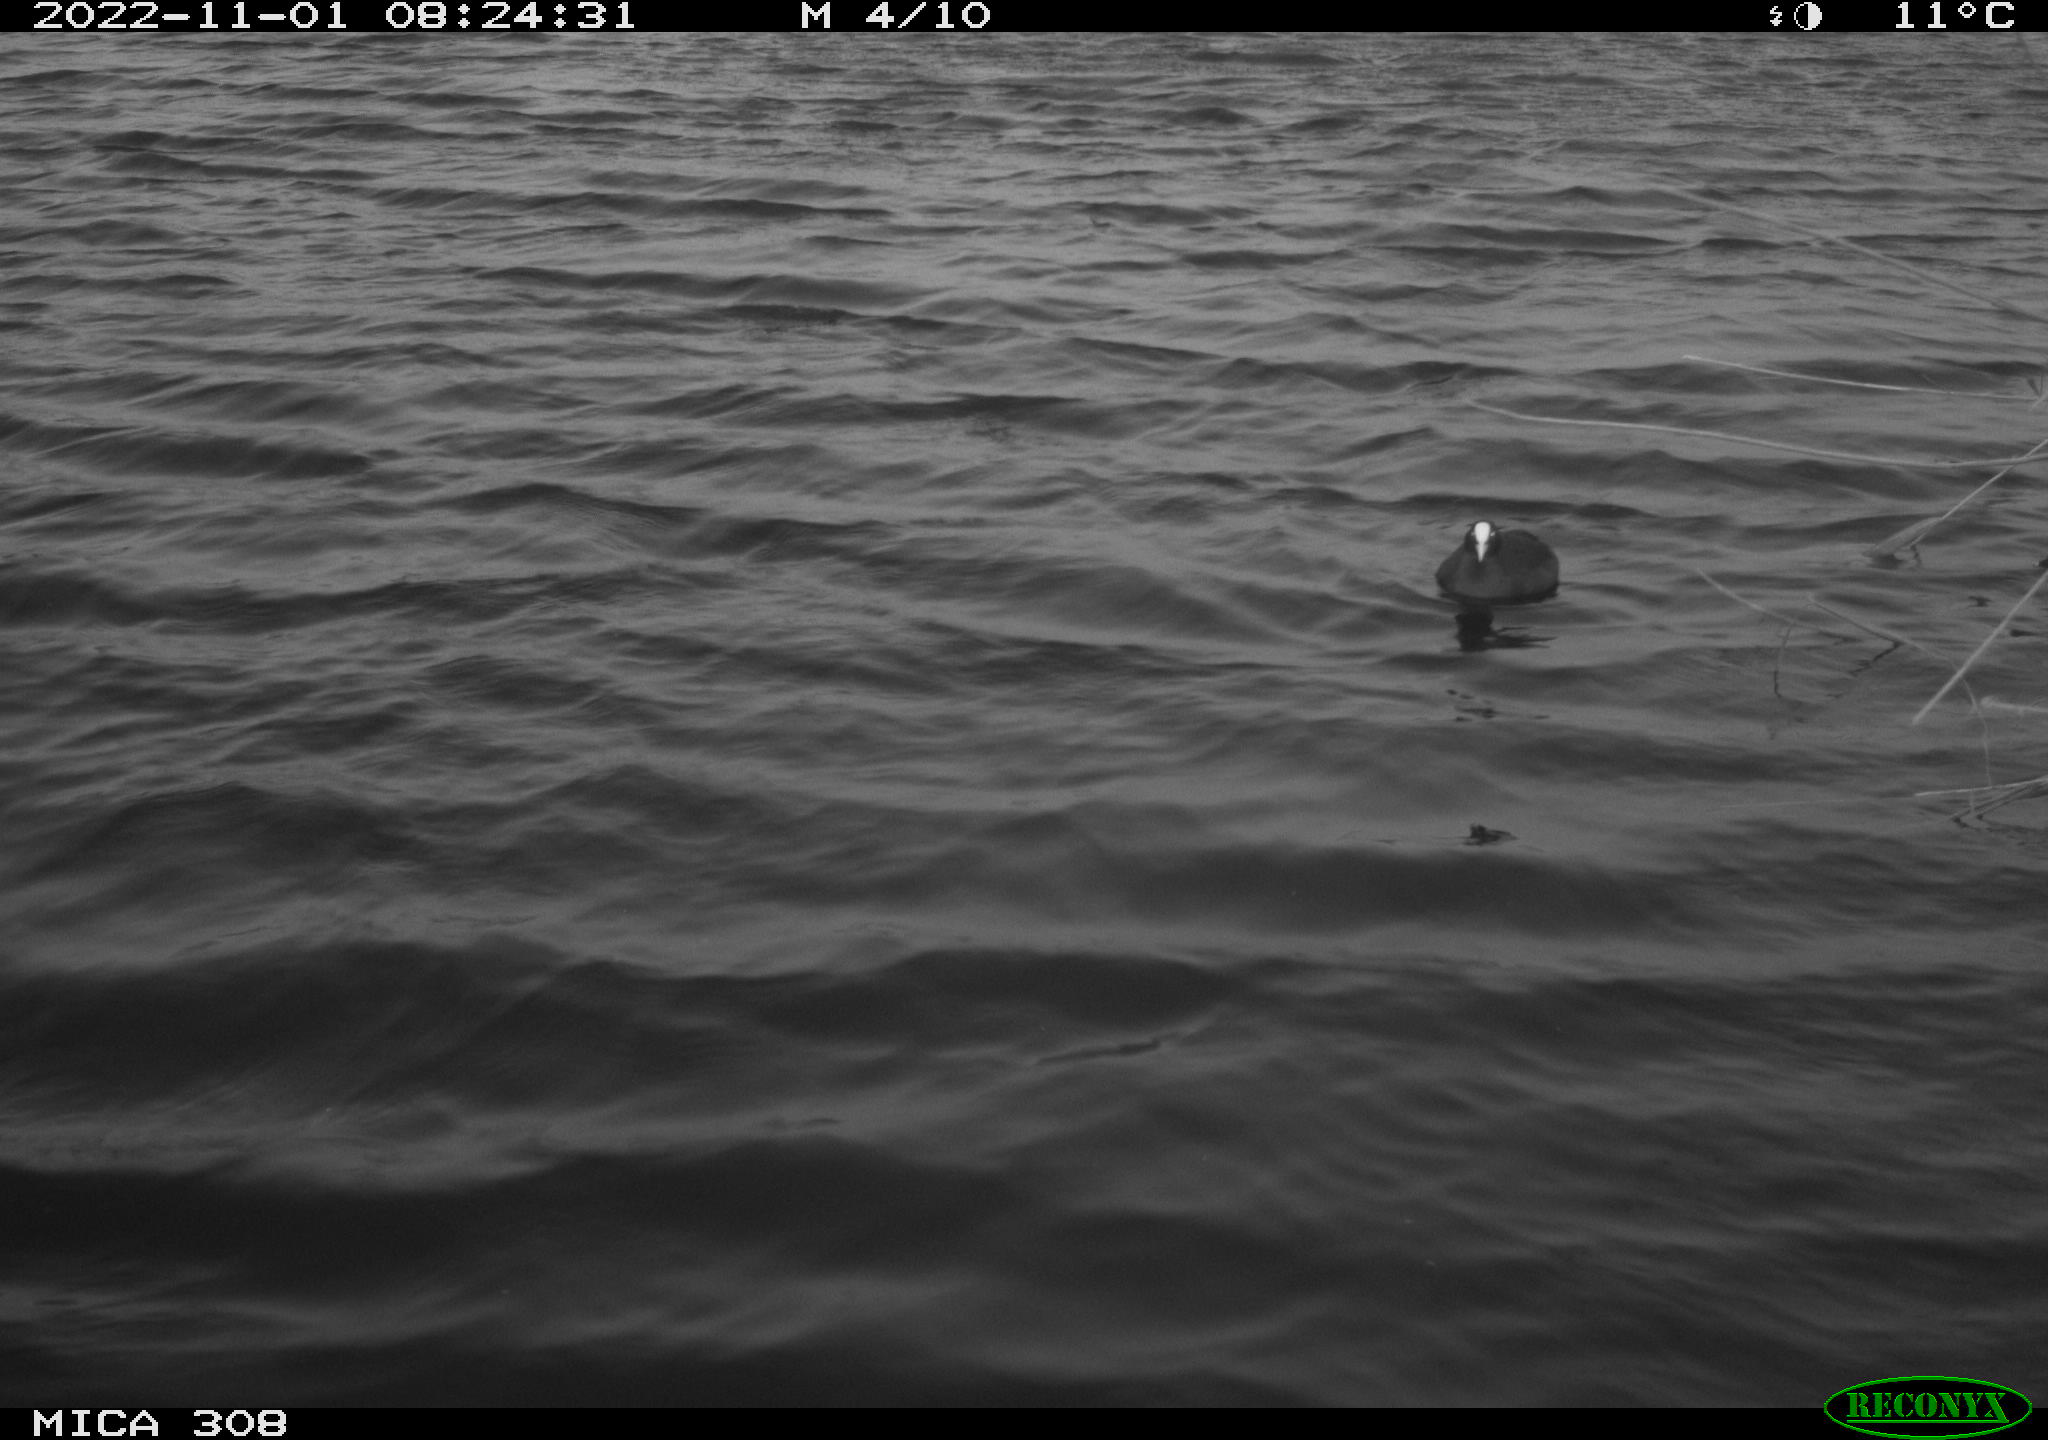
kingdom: Animalia
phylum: Chordata
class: Aves
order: Gruiformes
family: Rallidae
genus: Gallinula
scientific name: Gallinula chloropus
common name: Common moorhen
